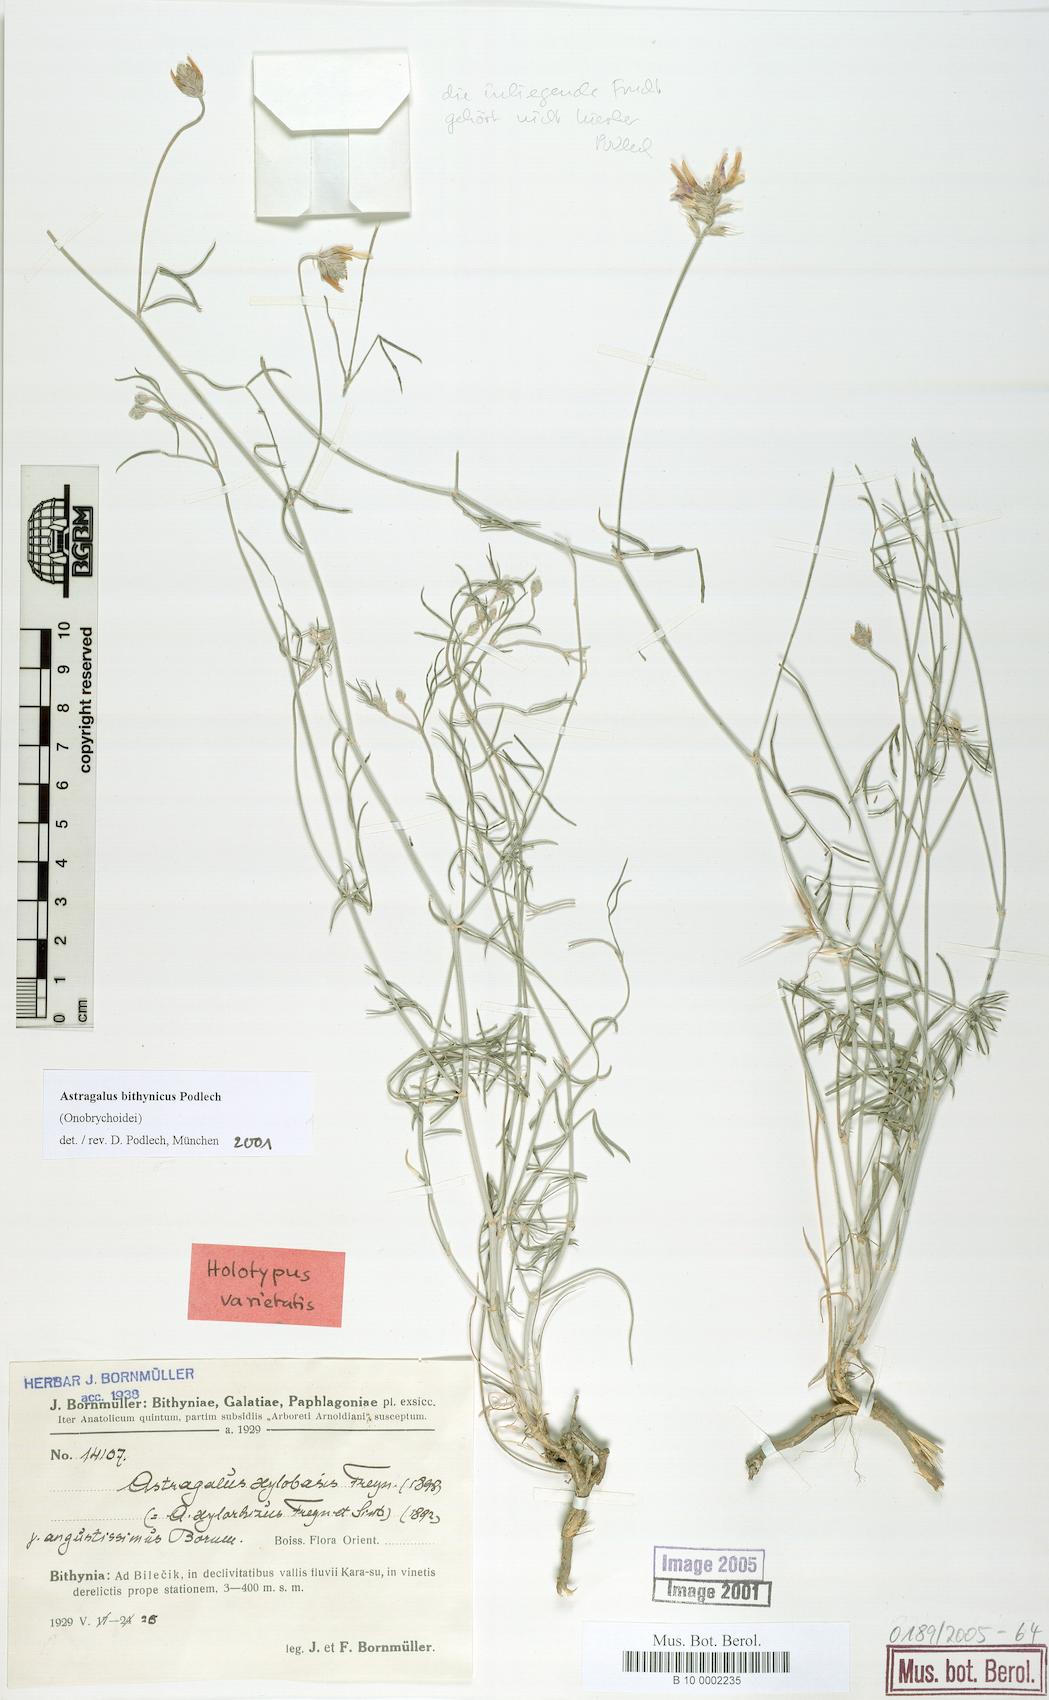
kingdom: Plantae
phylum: Tracheophyta
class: Magnoliopsida
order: Fabales
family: Fabaceae
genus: Astragalus
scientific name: Astragalus aduncus
